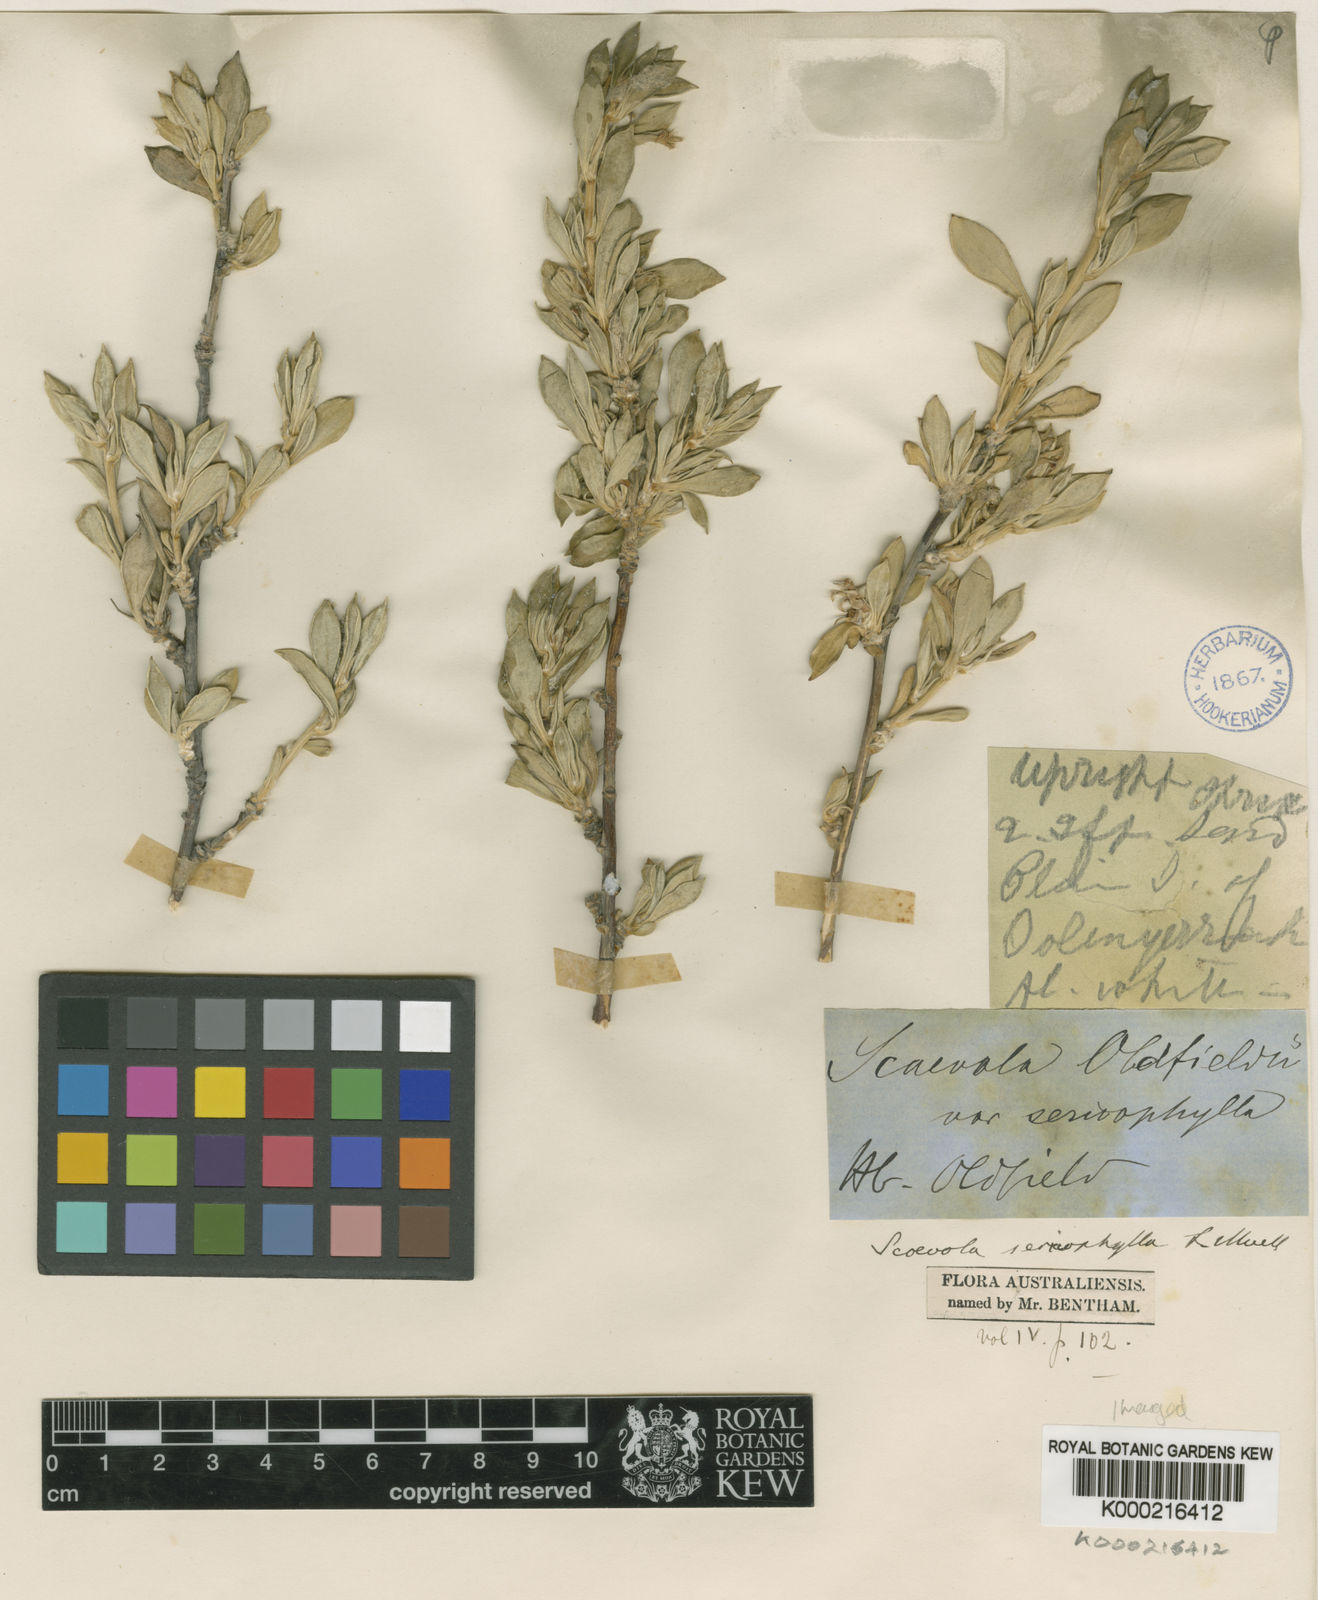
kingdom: Plantae
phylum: Tracheophyta
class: Magnoliopsida
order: Asterales
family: Goodeniaceae
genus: Scaevola
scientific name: Scaevola sericophylla
